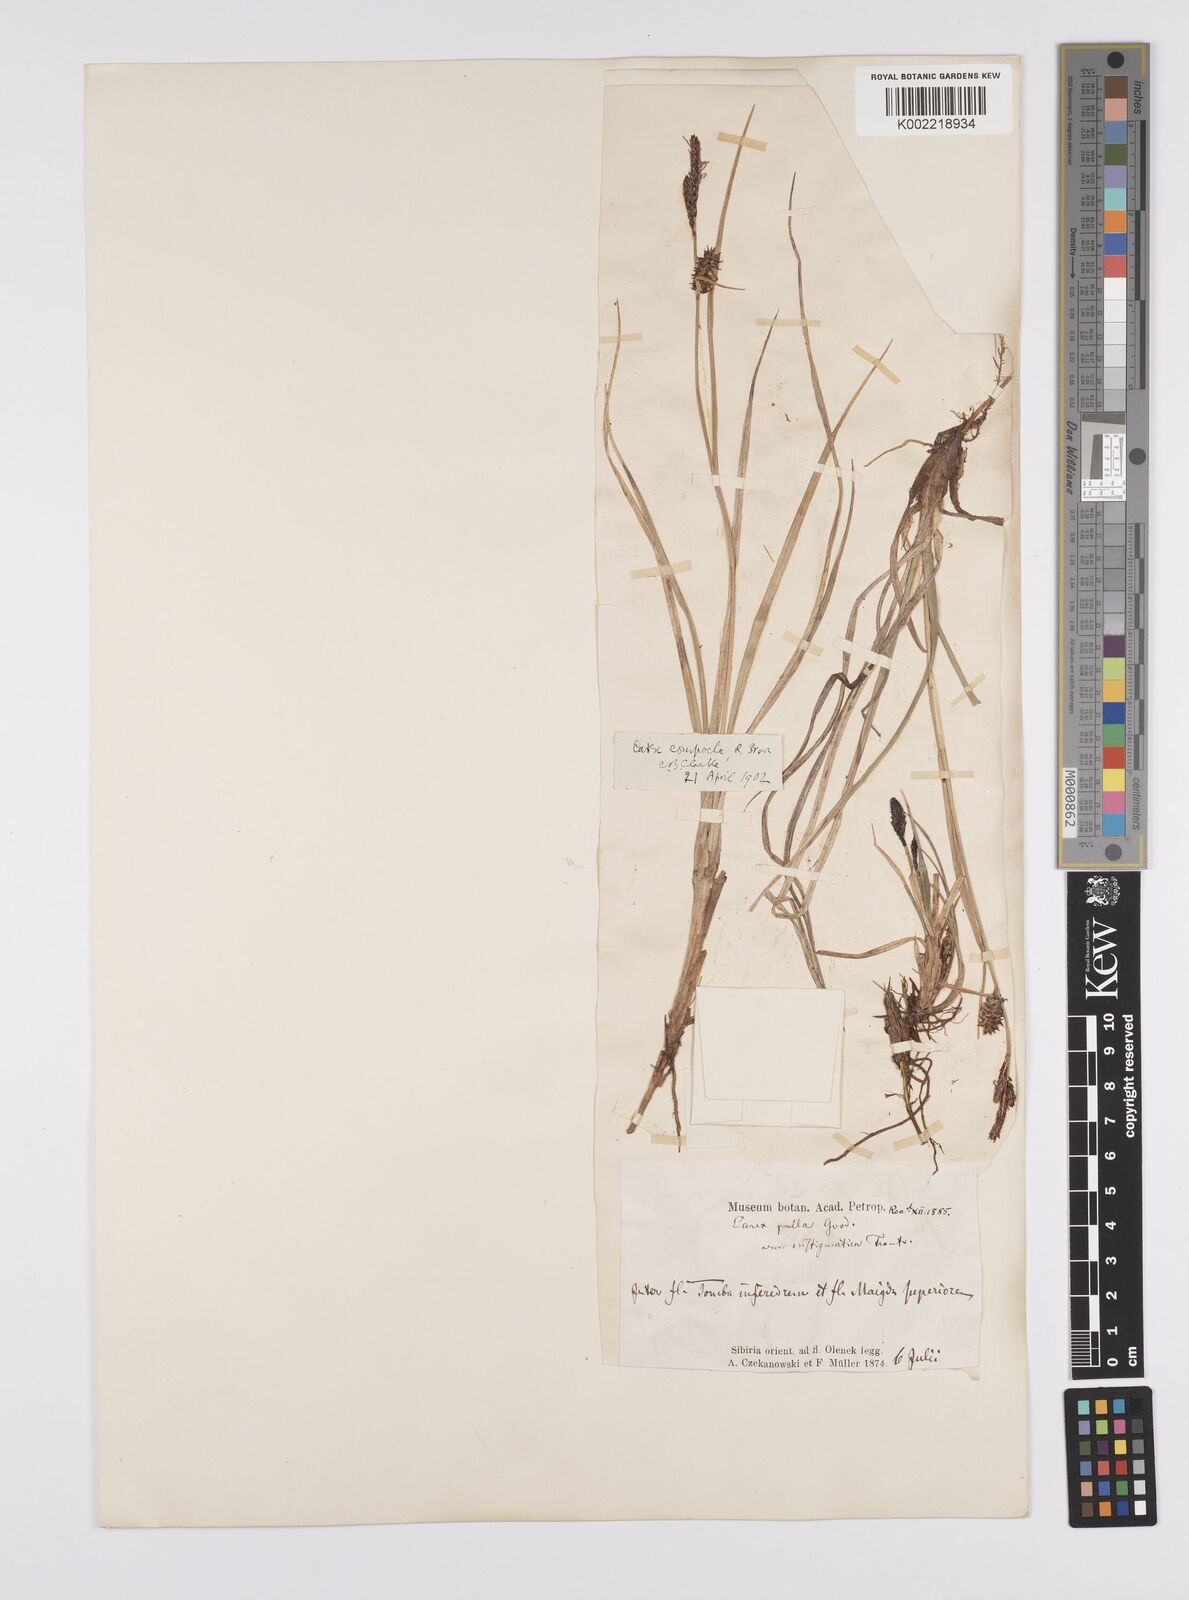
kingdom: Plantae
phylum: Tracheophyta
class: Liliopsida
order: Poales
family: Cyperaceae
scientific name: Cyperaceae
